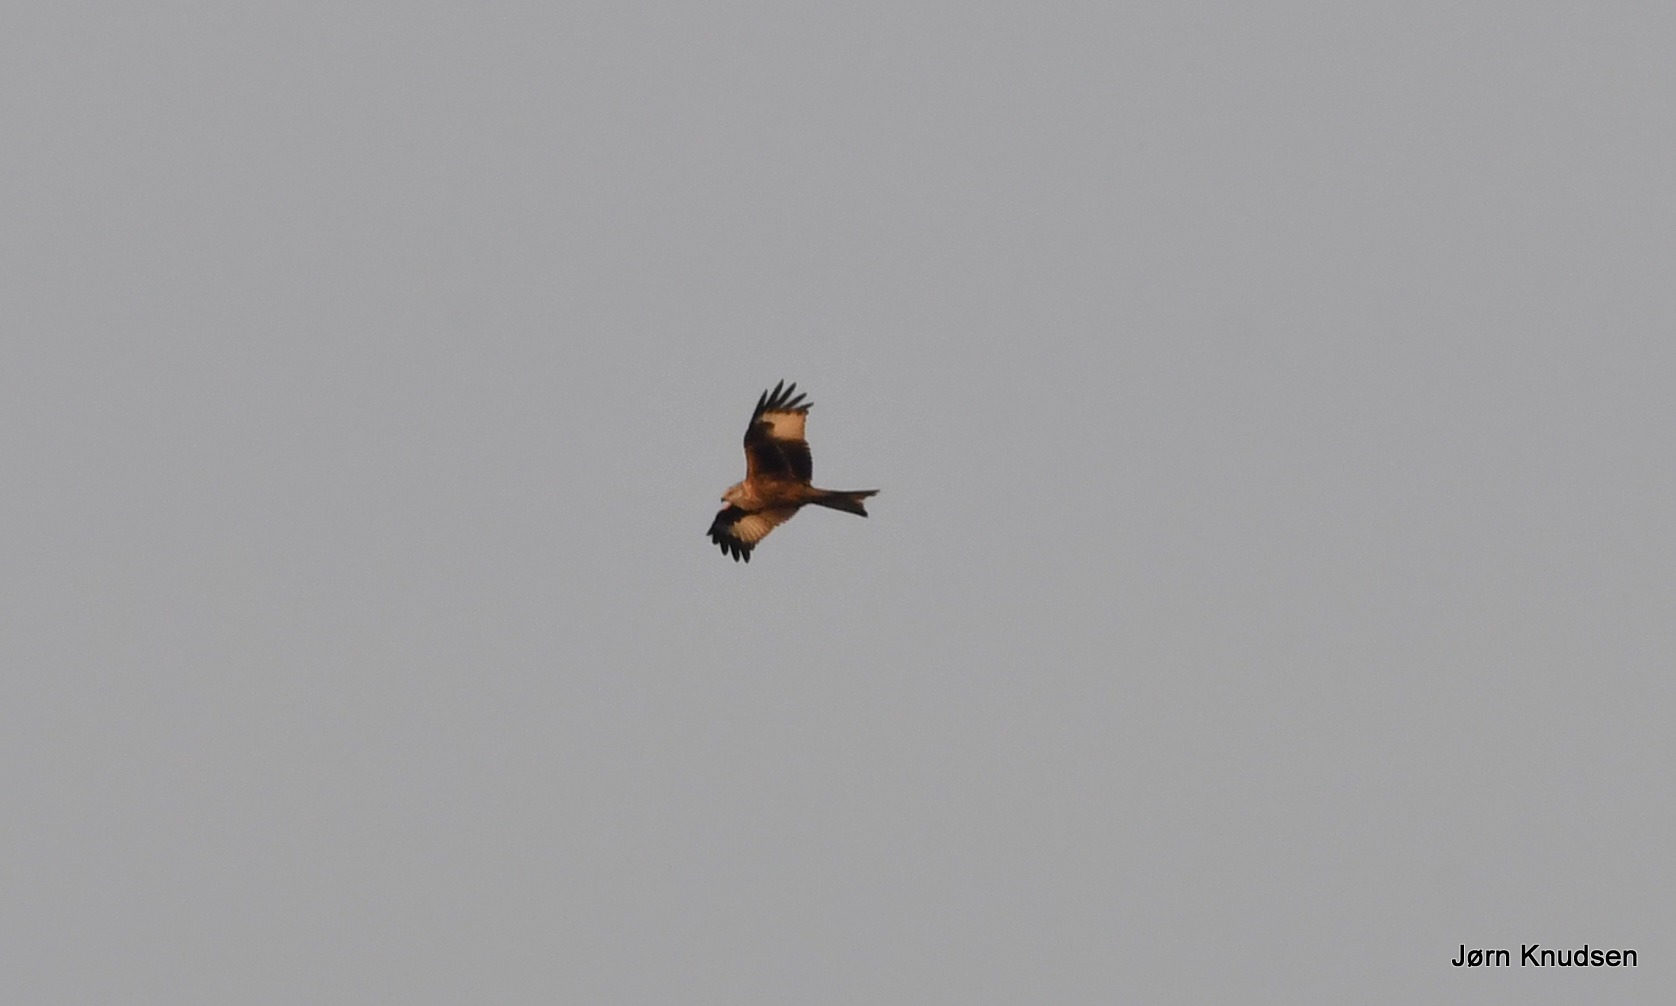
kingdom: Animalia
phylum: Chordata
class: Aves
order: Accipitriformes
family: Accipitridae
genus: Milvus
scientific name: Milvus milvus
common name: Rød glente
